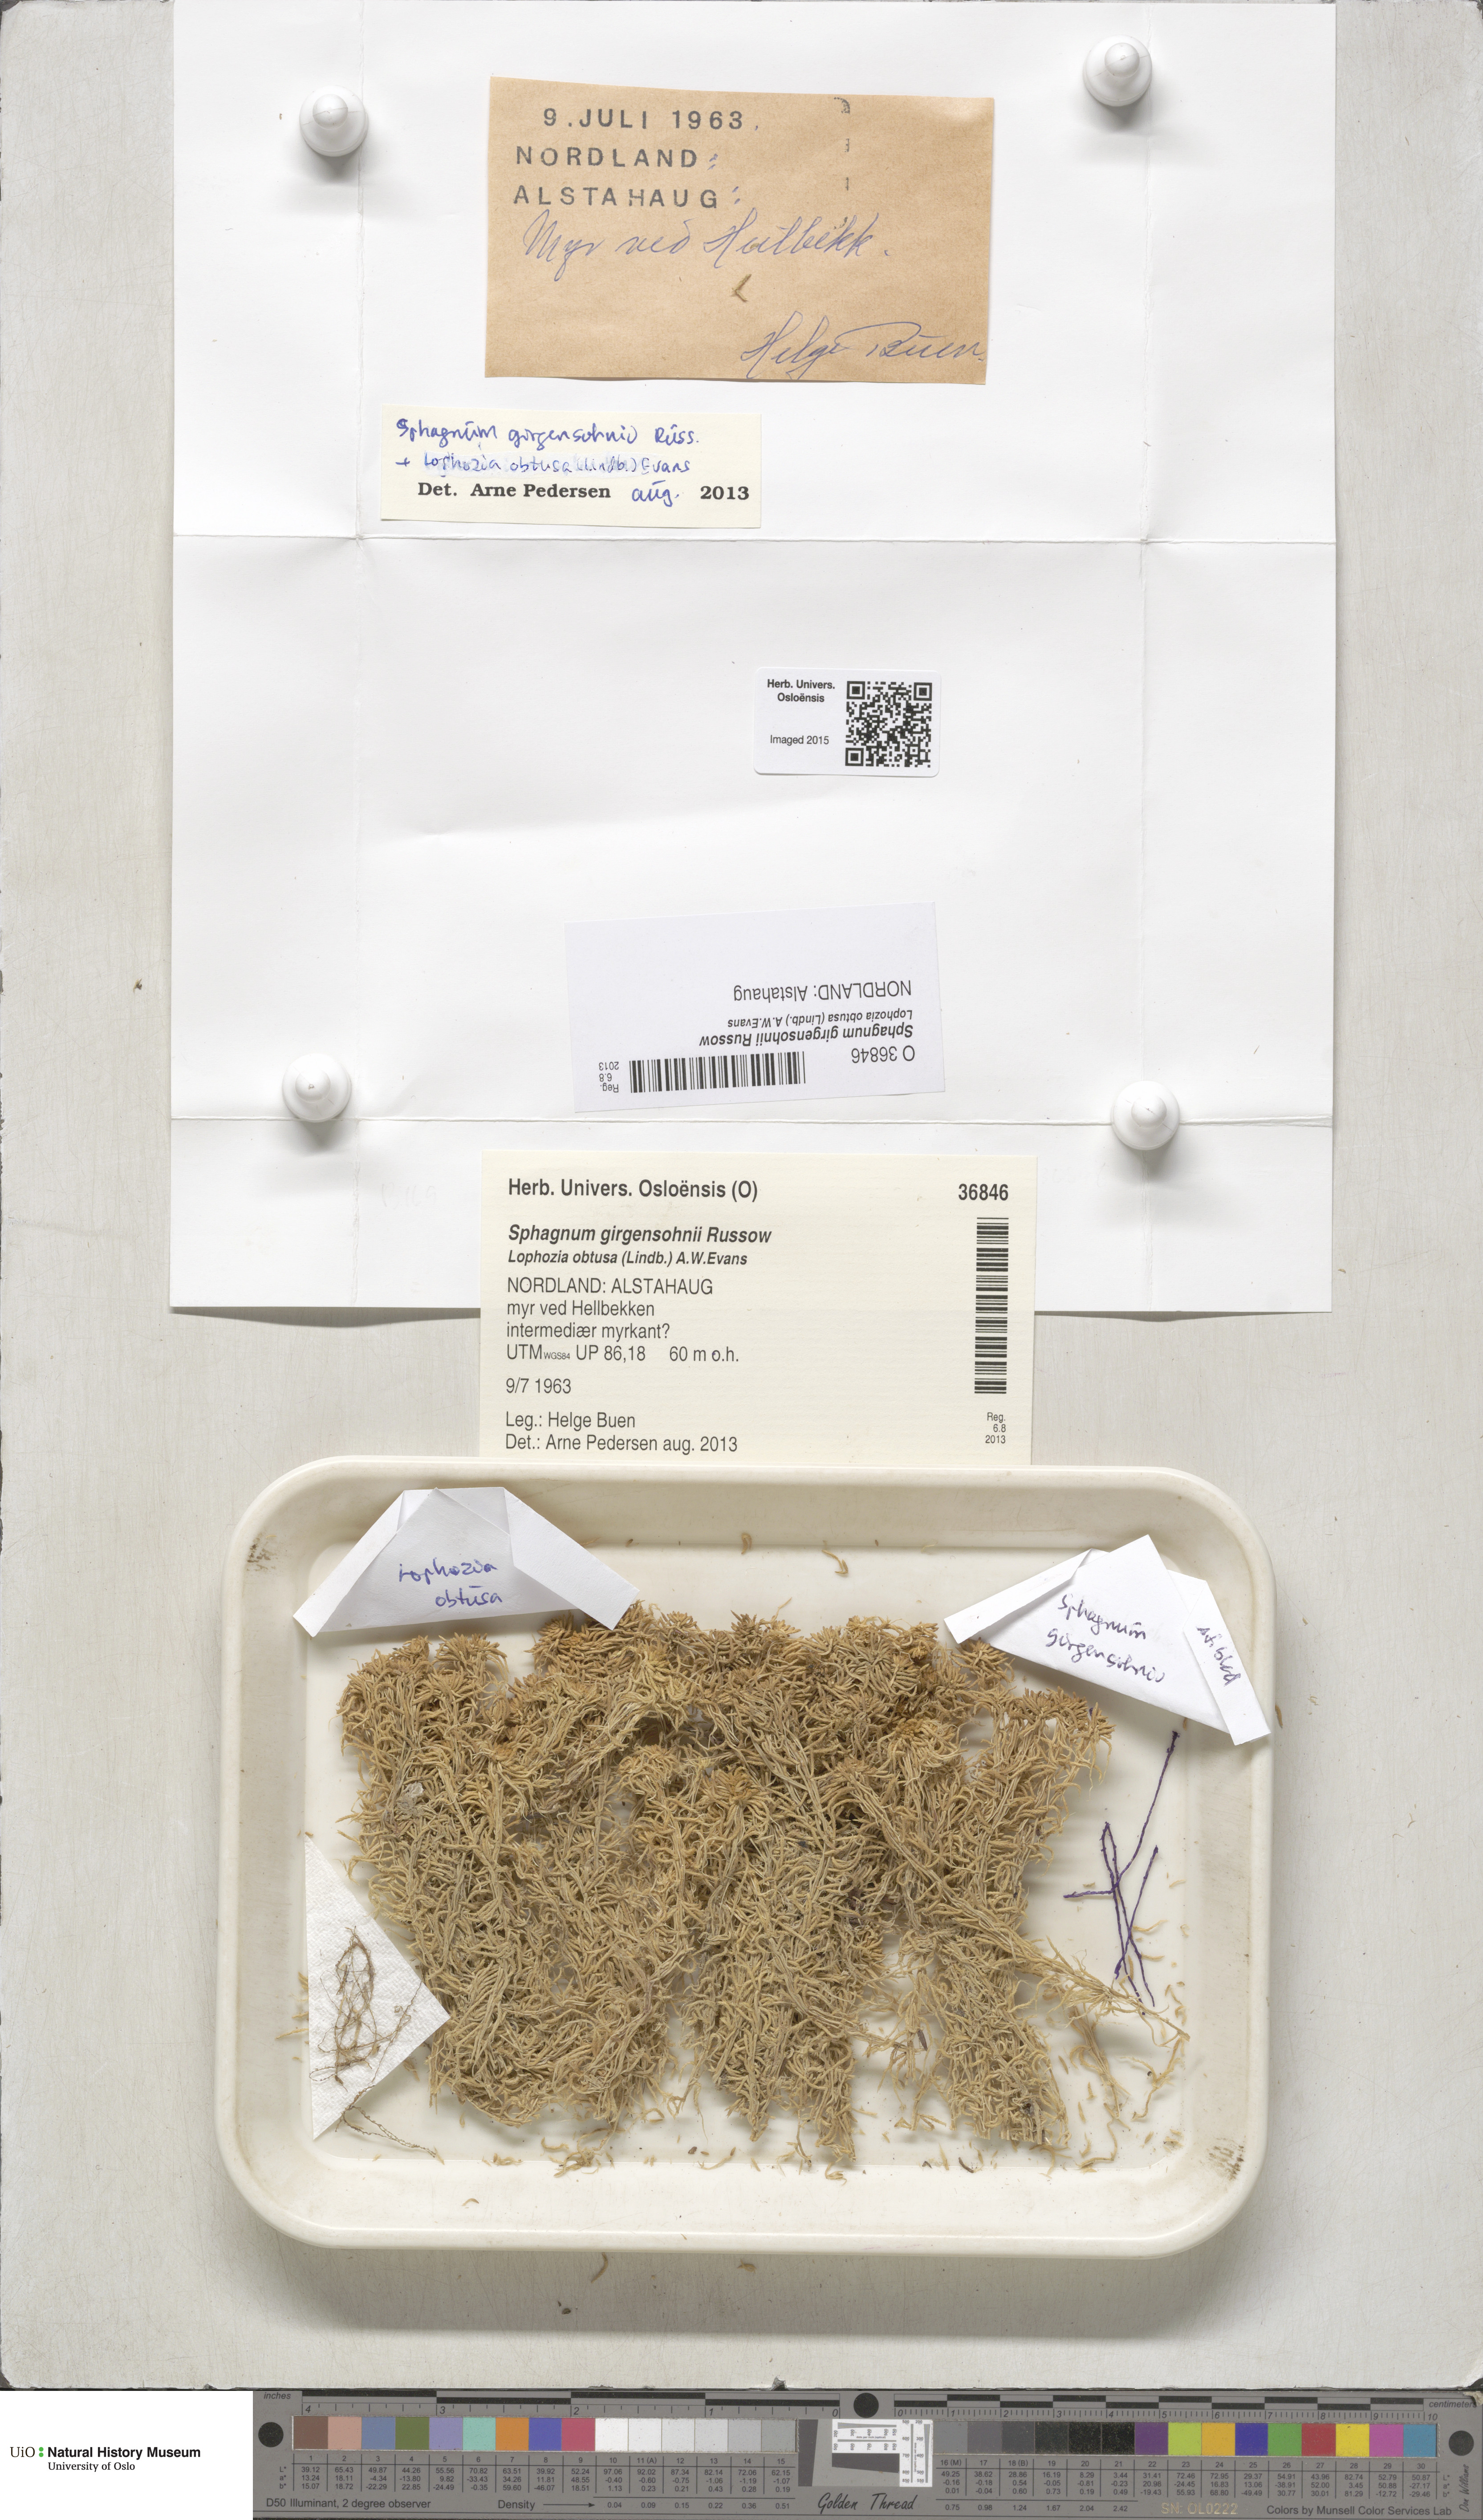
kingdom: Plantae
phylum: Bryophyta
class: Sphagnopsida
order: Sphagnales
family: Sphagnaceae
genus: Sphagnum
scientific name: Sphagnum girgensohnii
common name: Girgensohn's peat moss
